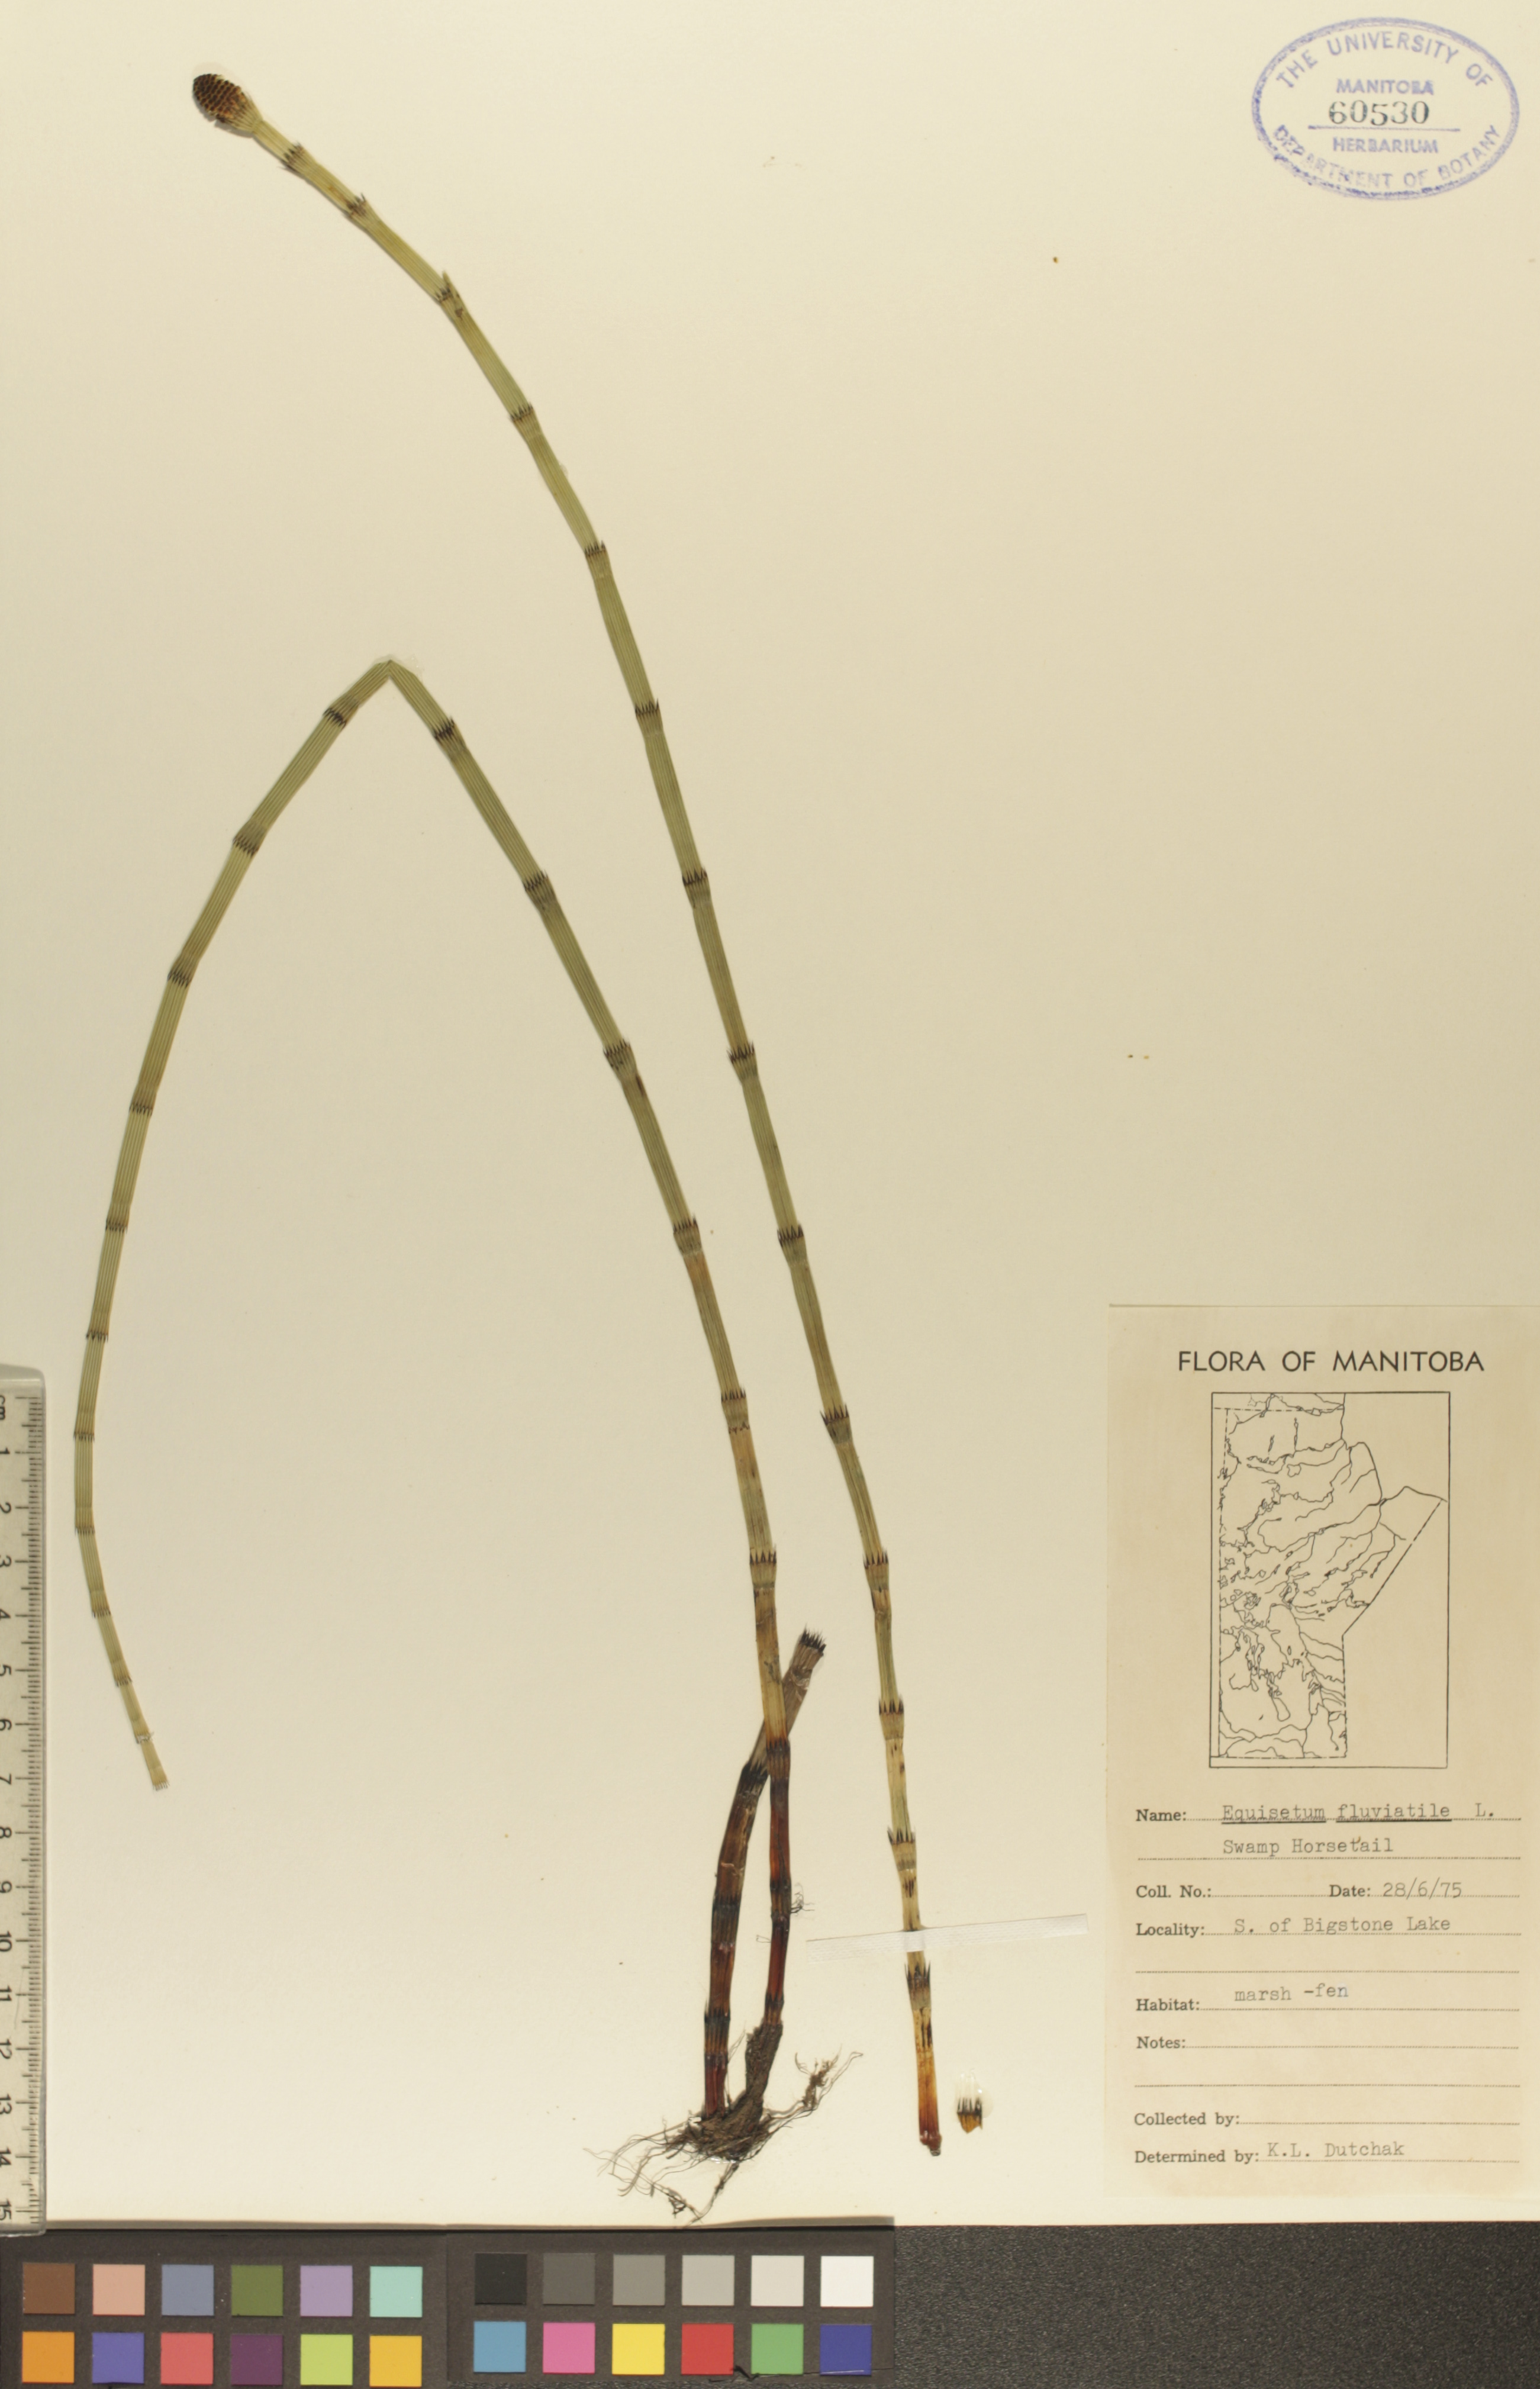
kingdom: Plantae
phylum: Tracheophyta
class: Polypodiopsida
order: Equisetales
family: Equisetaceae
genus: Equisetum
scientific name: Equisetum fluviatile
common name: Water horsetail
